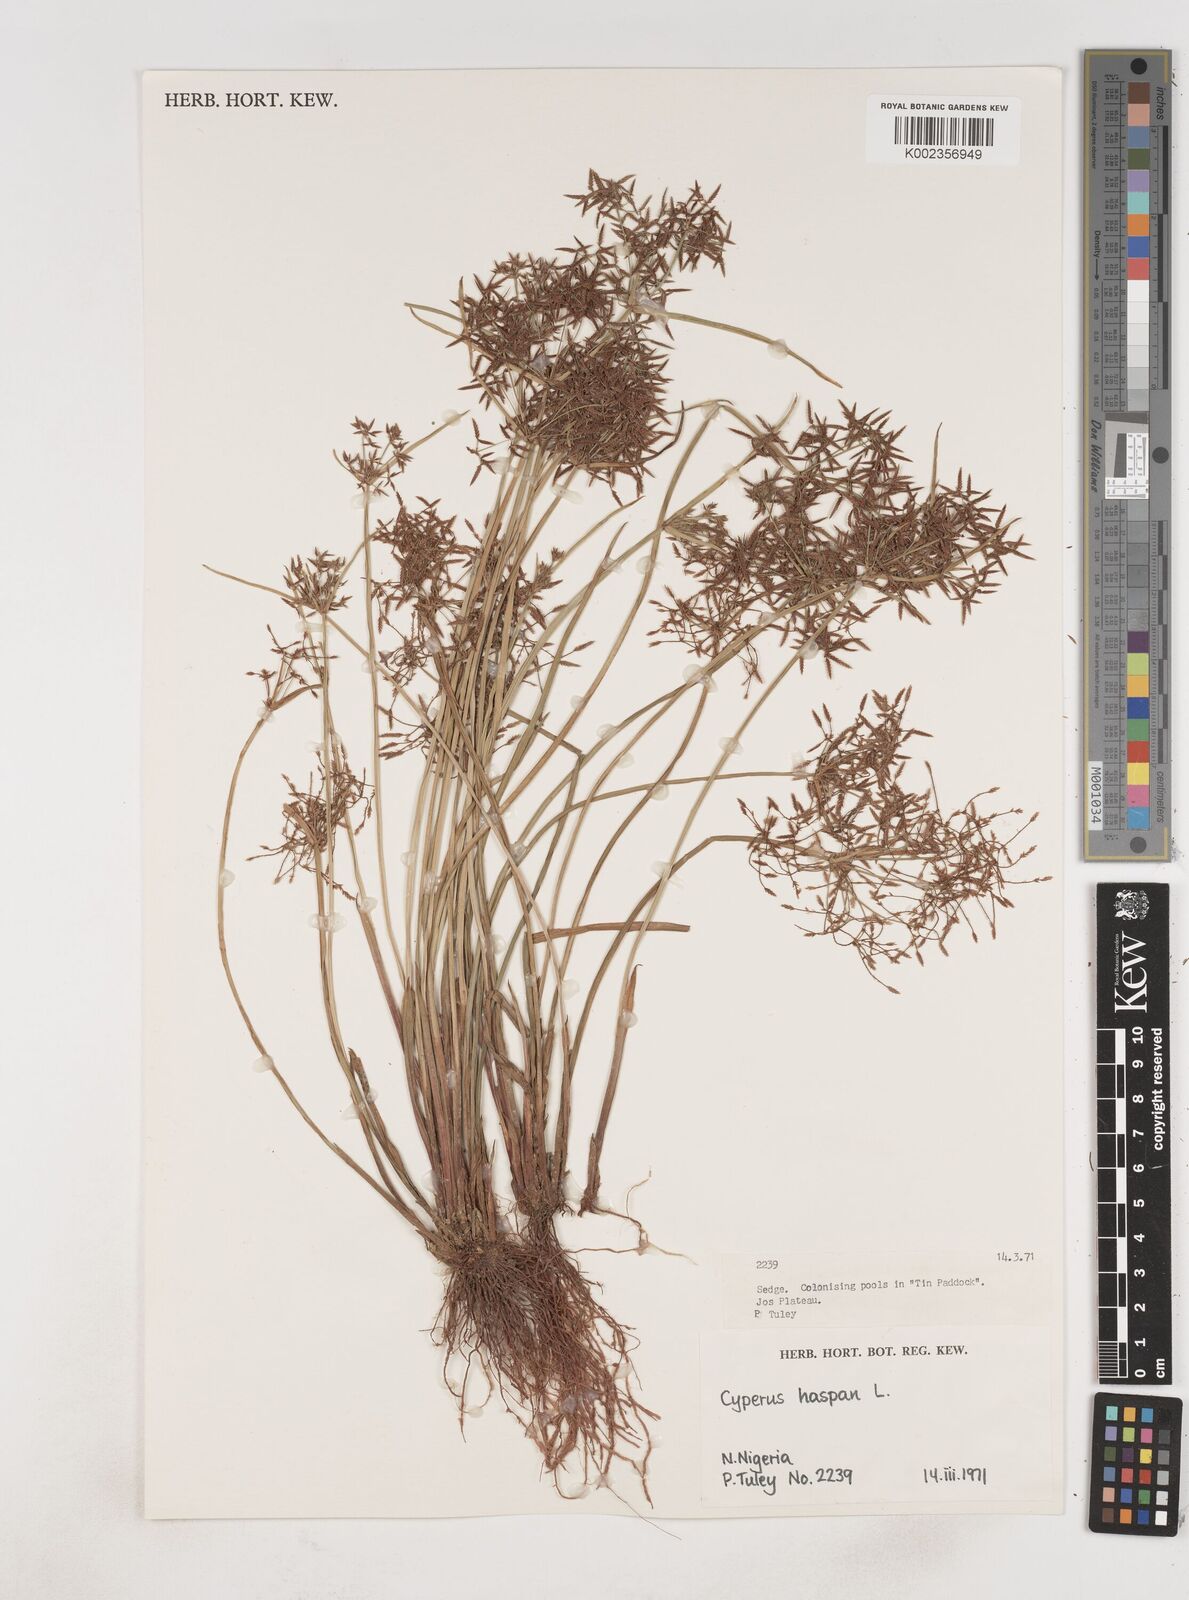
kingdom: Plantae
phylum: Tracheophyta
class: Liliopsida
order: Poales
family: Cyperaceae
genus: Cyperus
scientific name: Cyperus haspan
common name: Haspan flatsedge
